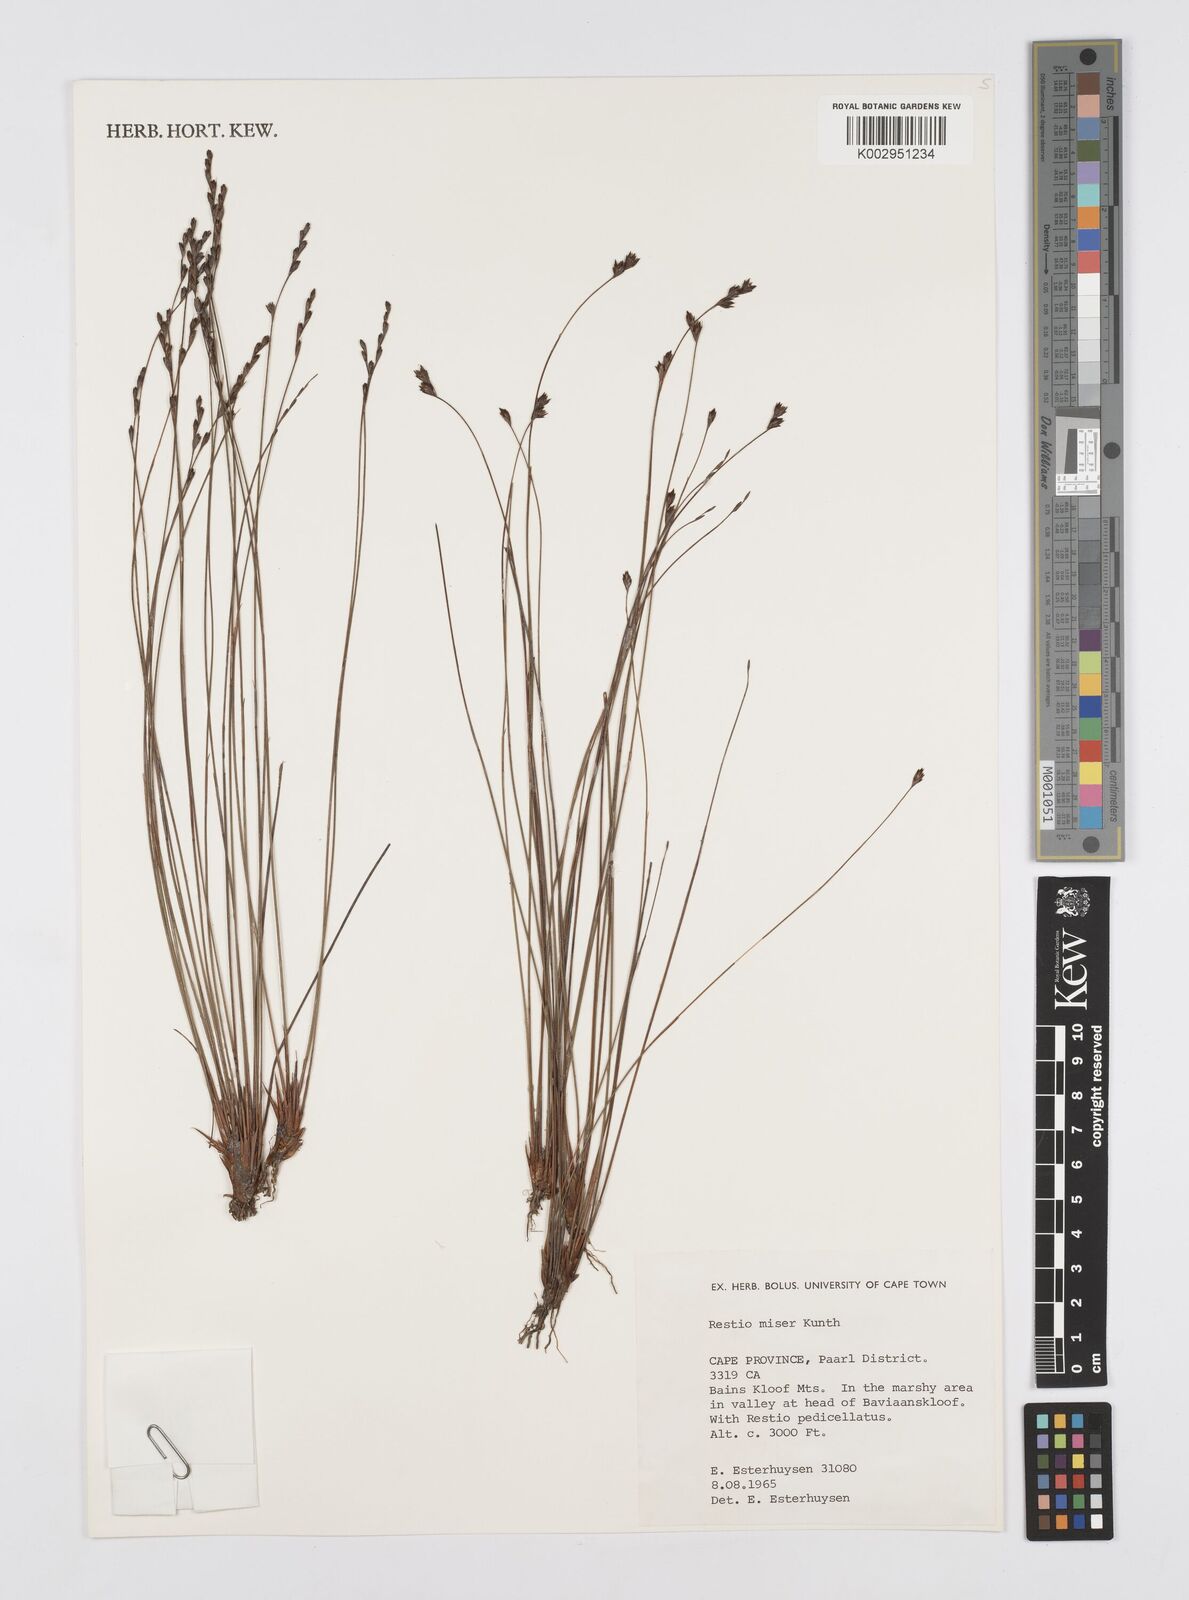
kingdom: Plantae
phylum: Tracheophyta
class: Liliopsida
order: Poales
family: Restionaceae
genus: Restio
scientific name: Restio miser
